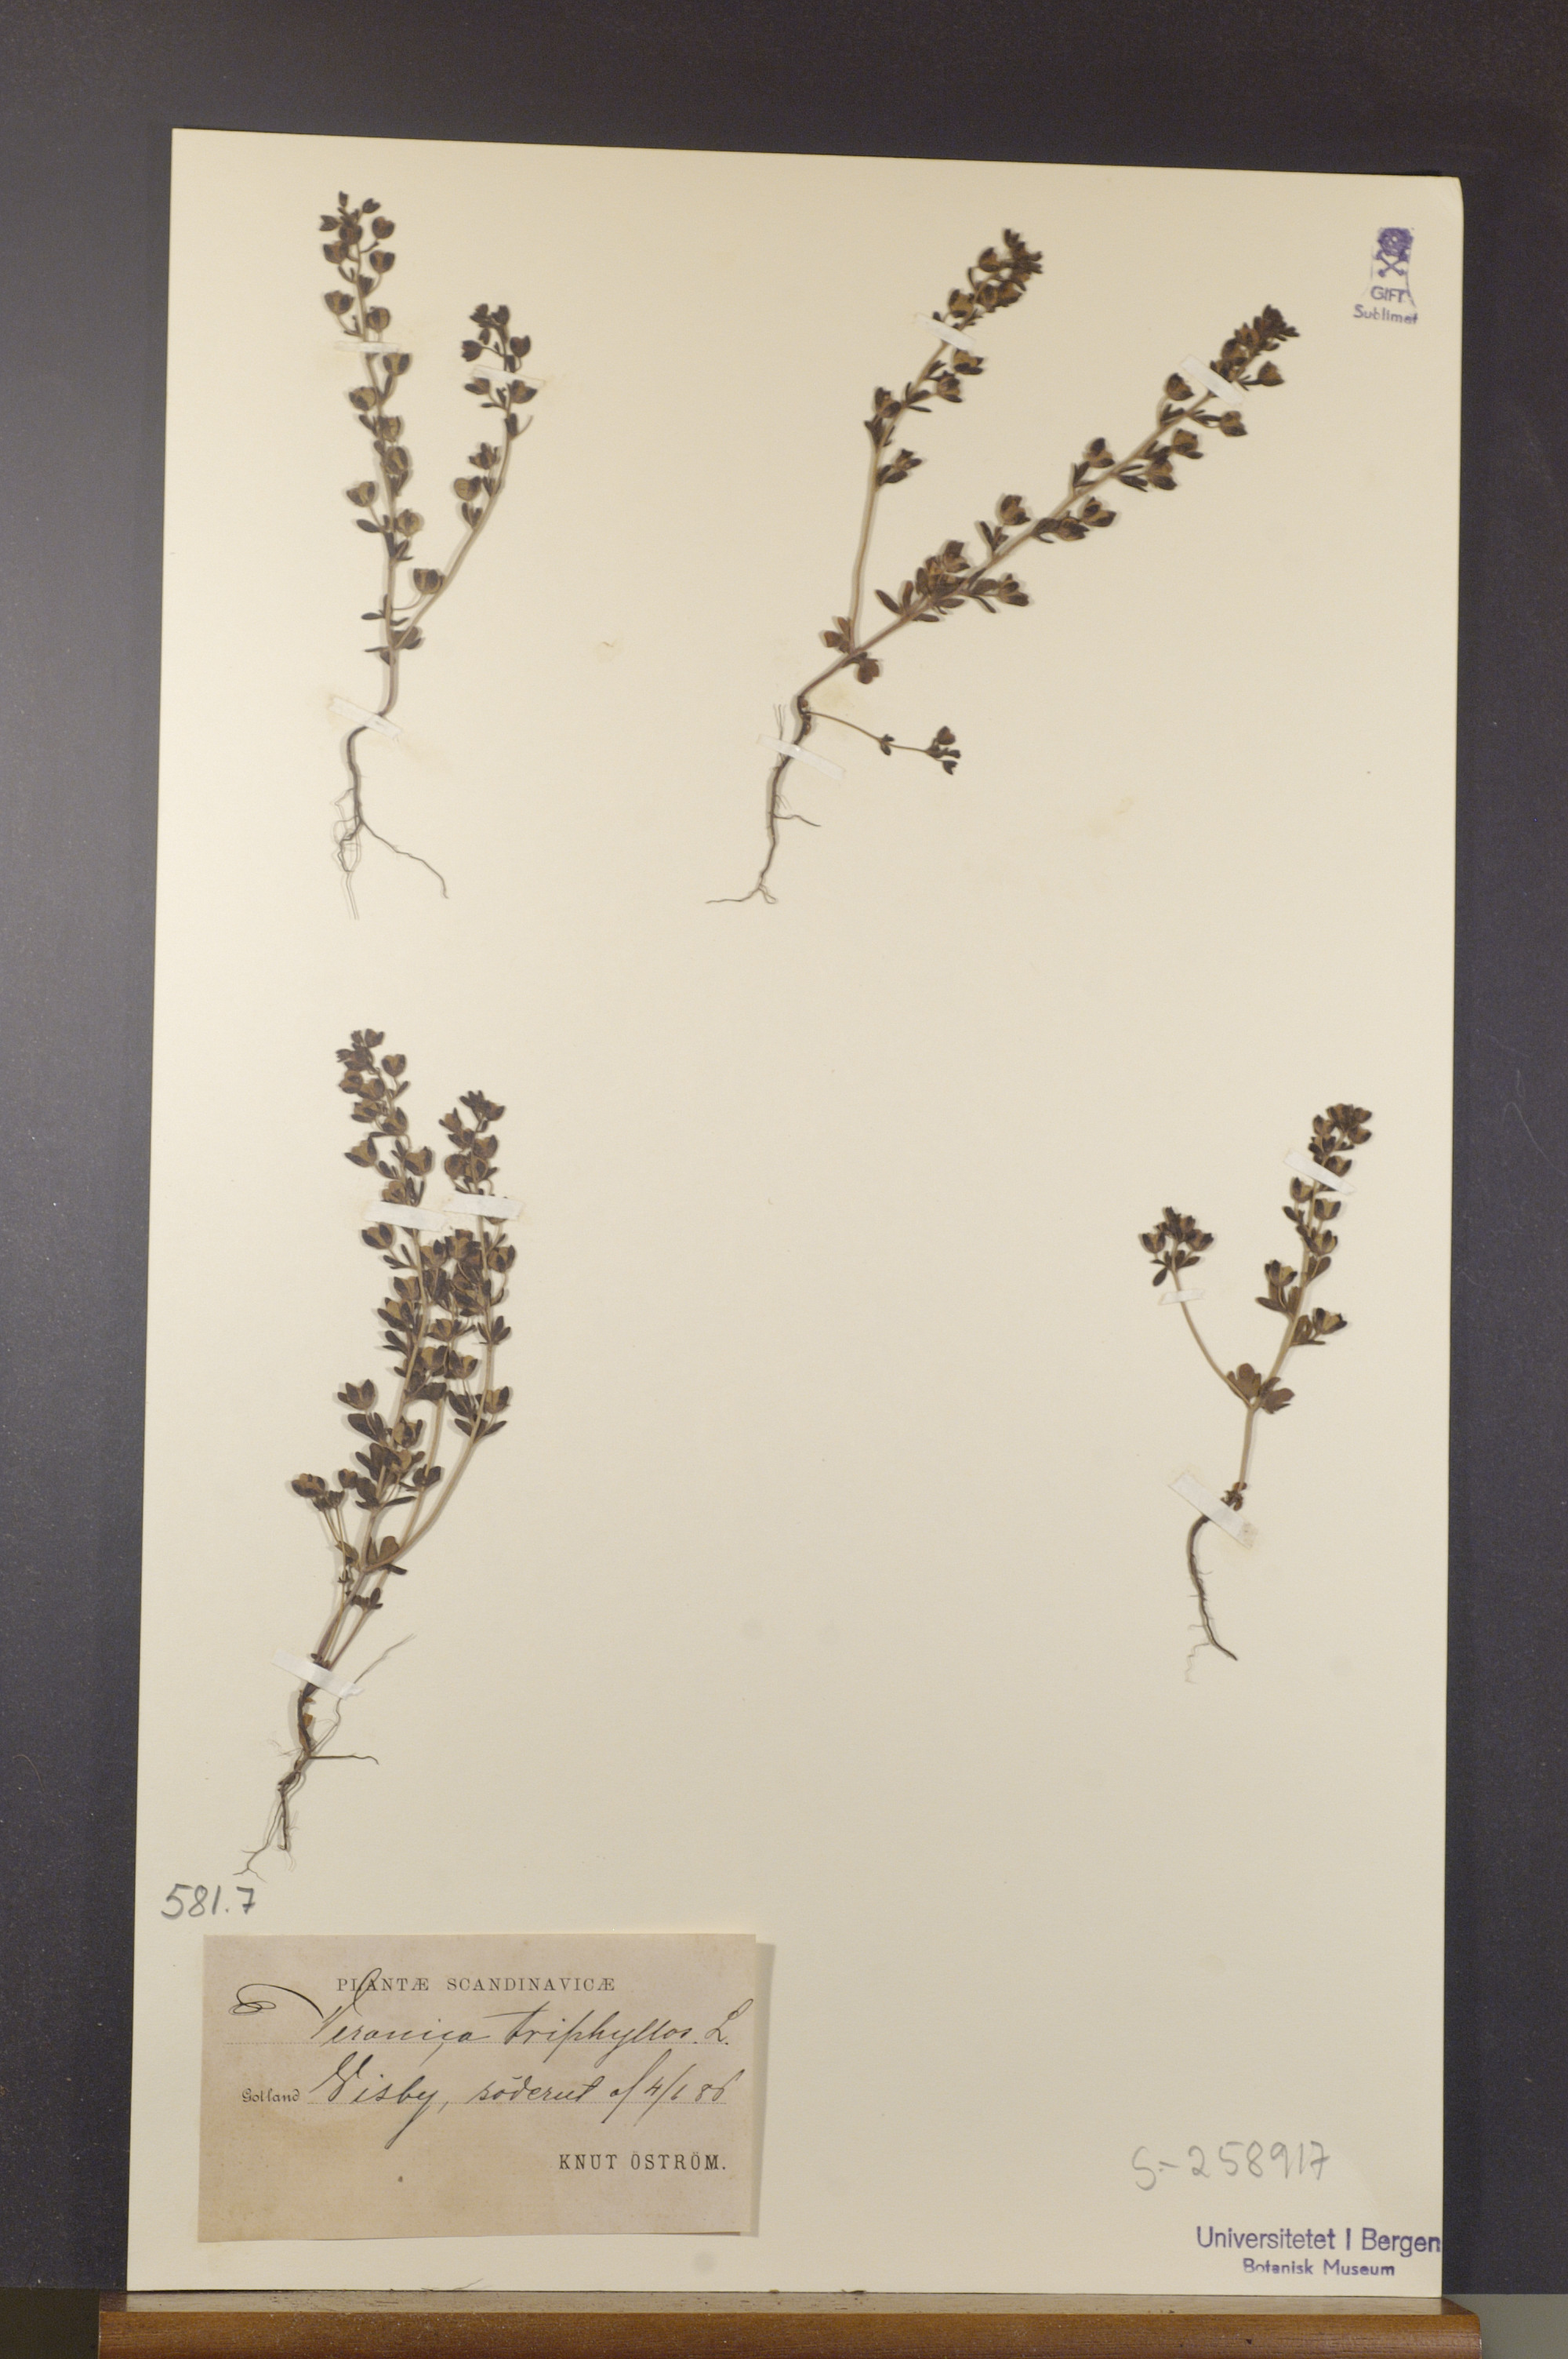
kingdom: Plantae
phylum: Tracheophyta
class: Magnoliopsida
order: Lamiales
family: Plantaginaceae
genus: Veronica
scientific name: Veronica triphyllos
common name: Fingered speedwell
